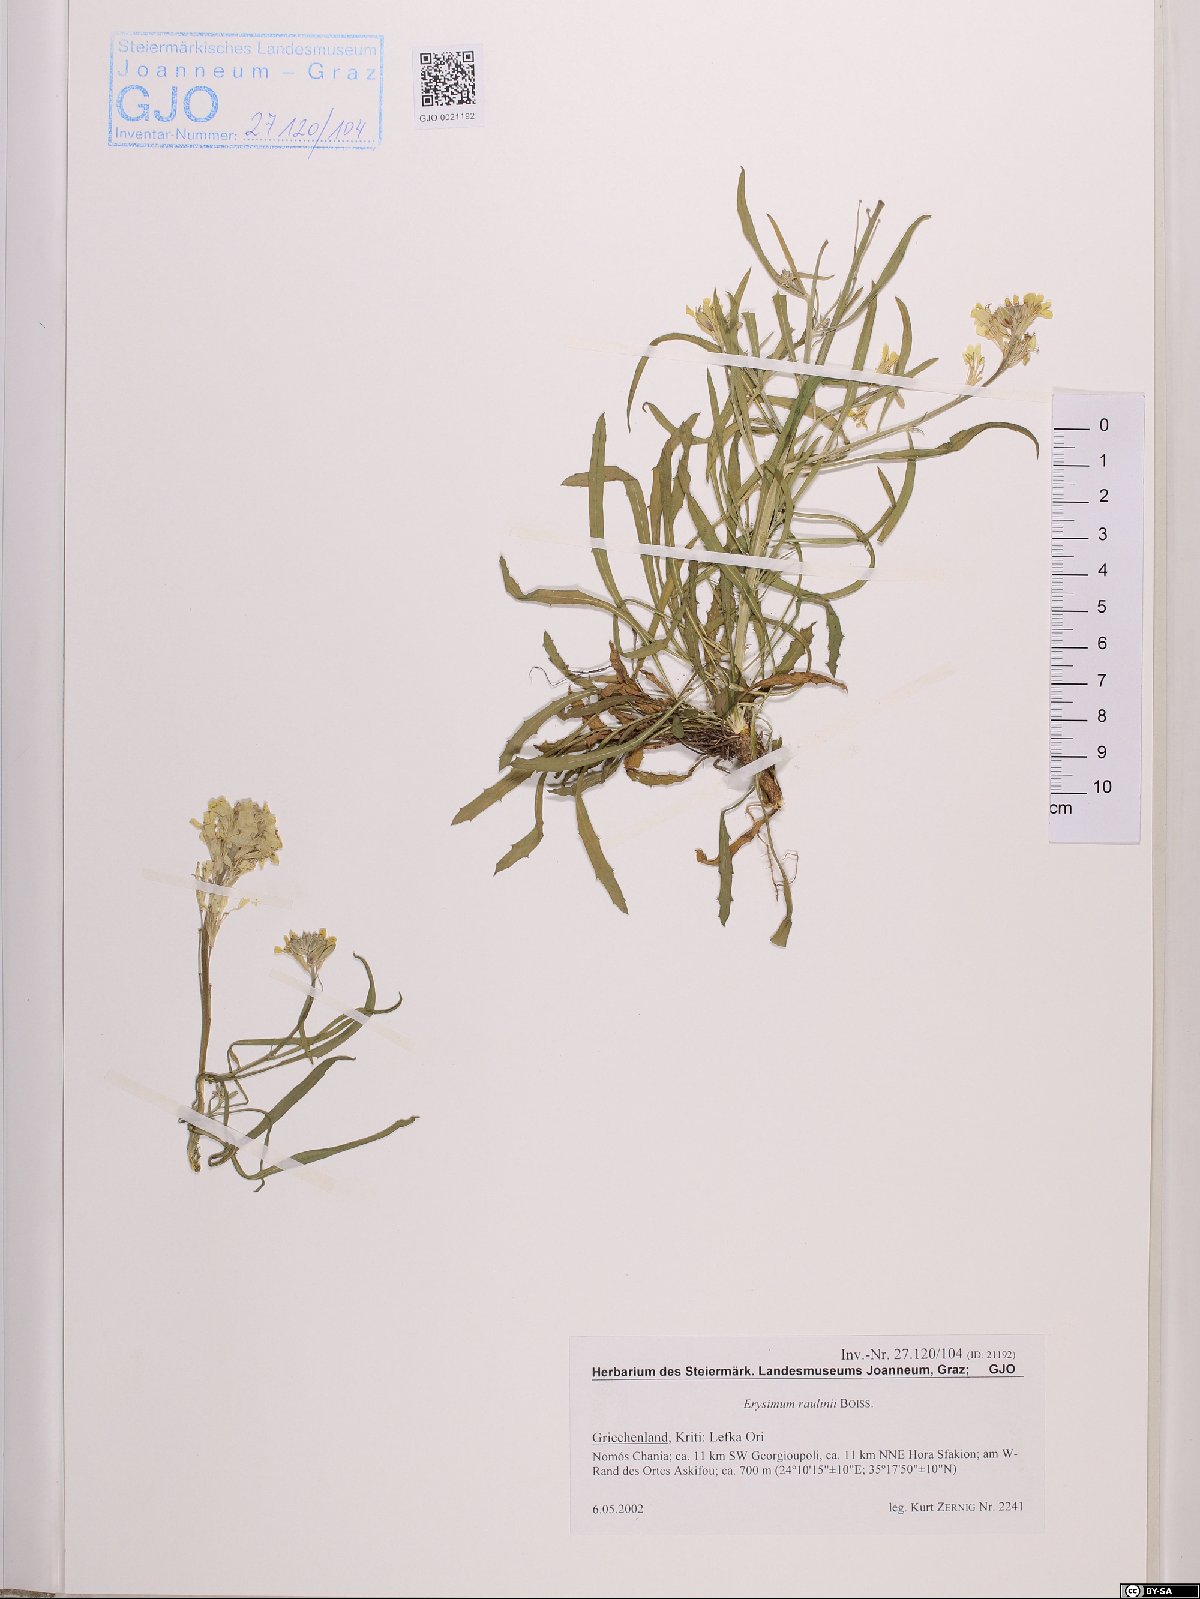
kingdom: Plantae
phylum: Tracheophyta
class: Magnoliopsida
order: Brassicales
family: Brassicaceae
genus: Erysimum
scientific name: Erysimum raulinii
